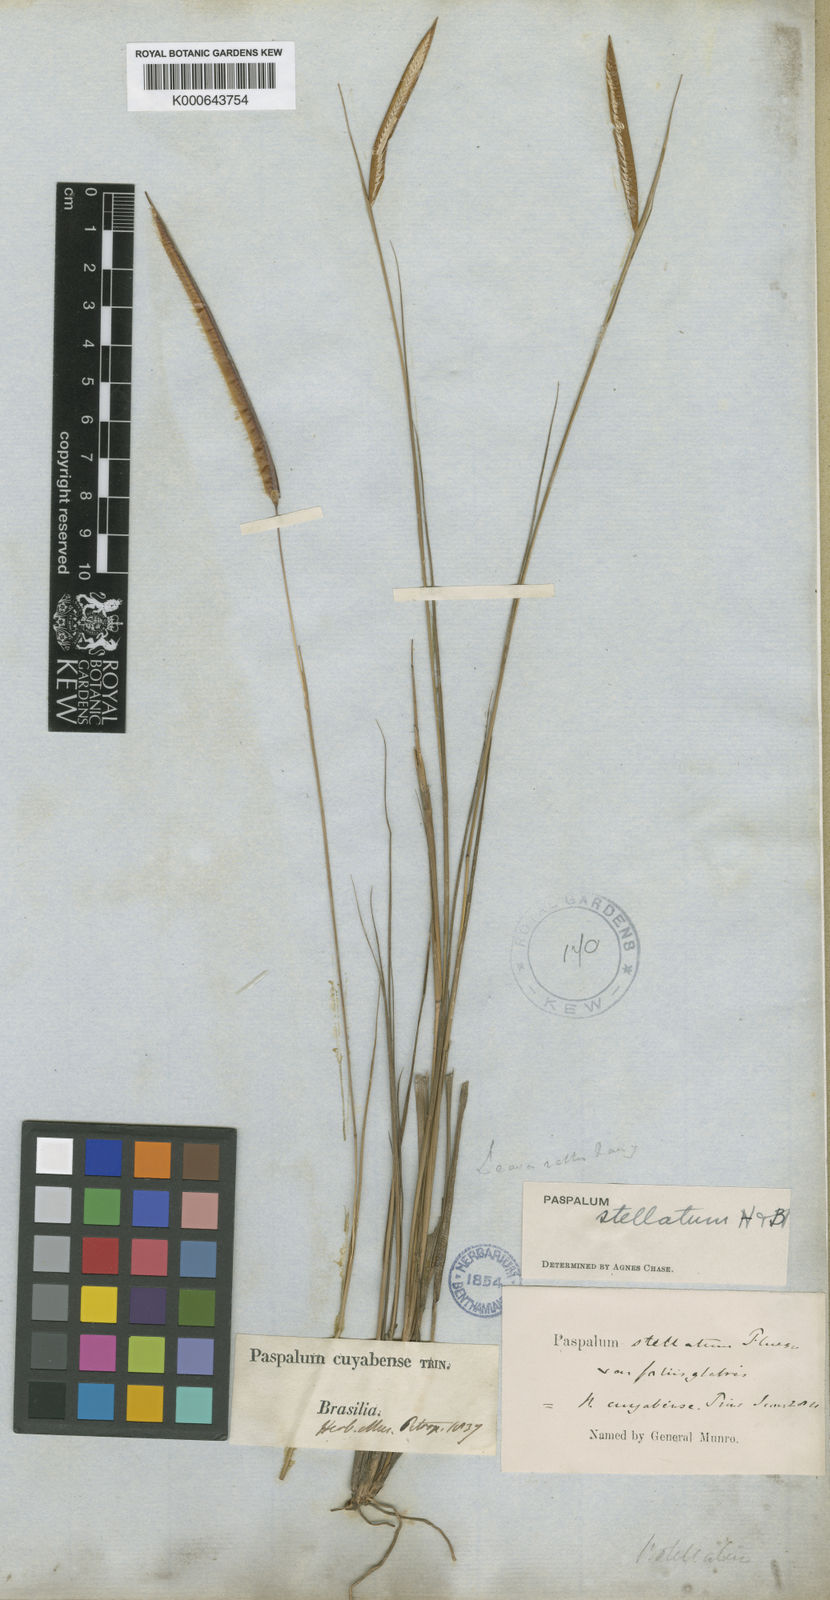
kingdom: Plantae
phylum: Tracheophyta
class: Liliopsida
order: Poales
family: Poaceae
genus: Paspalum
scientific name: Paspalum
